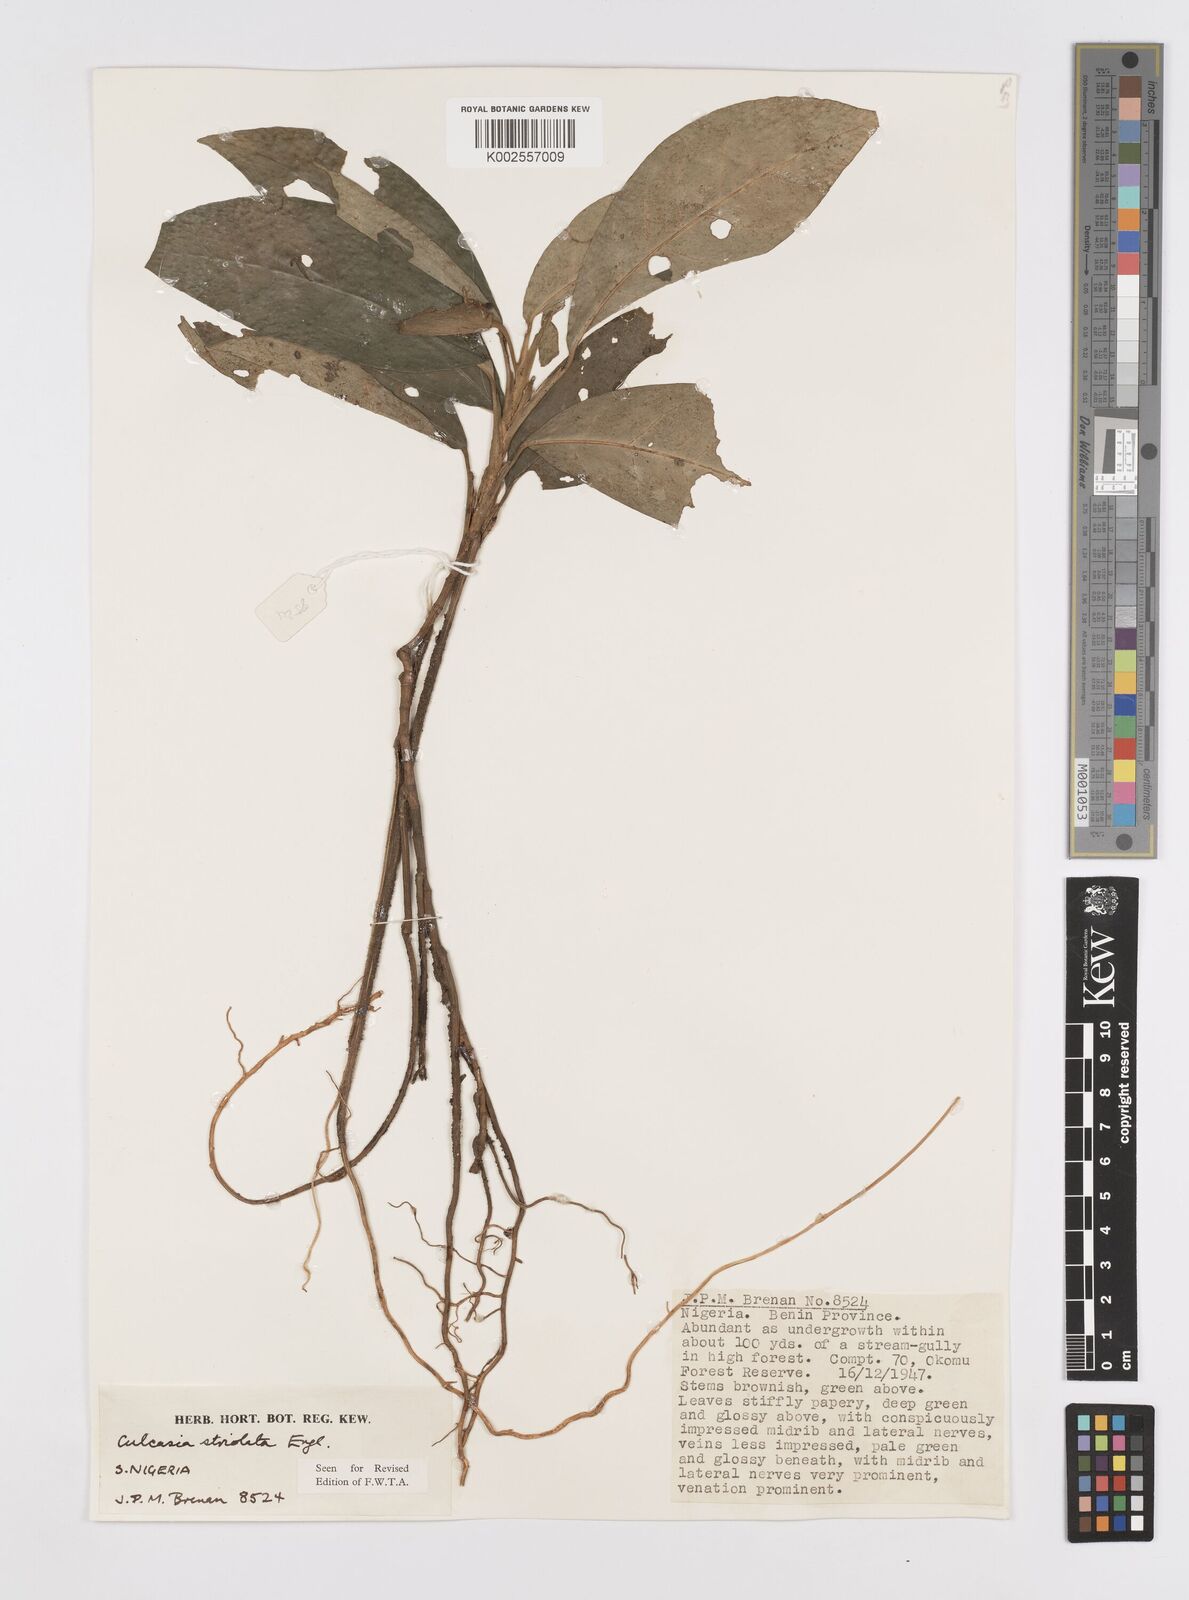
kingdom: Plantae
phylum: Tracheophyta
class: Liliopsida
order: Alismatales
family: Araceae
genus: Culcasia
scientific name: Culcasia striolata
